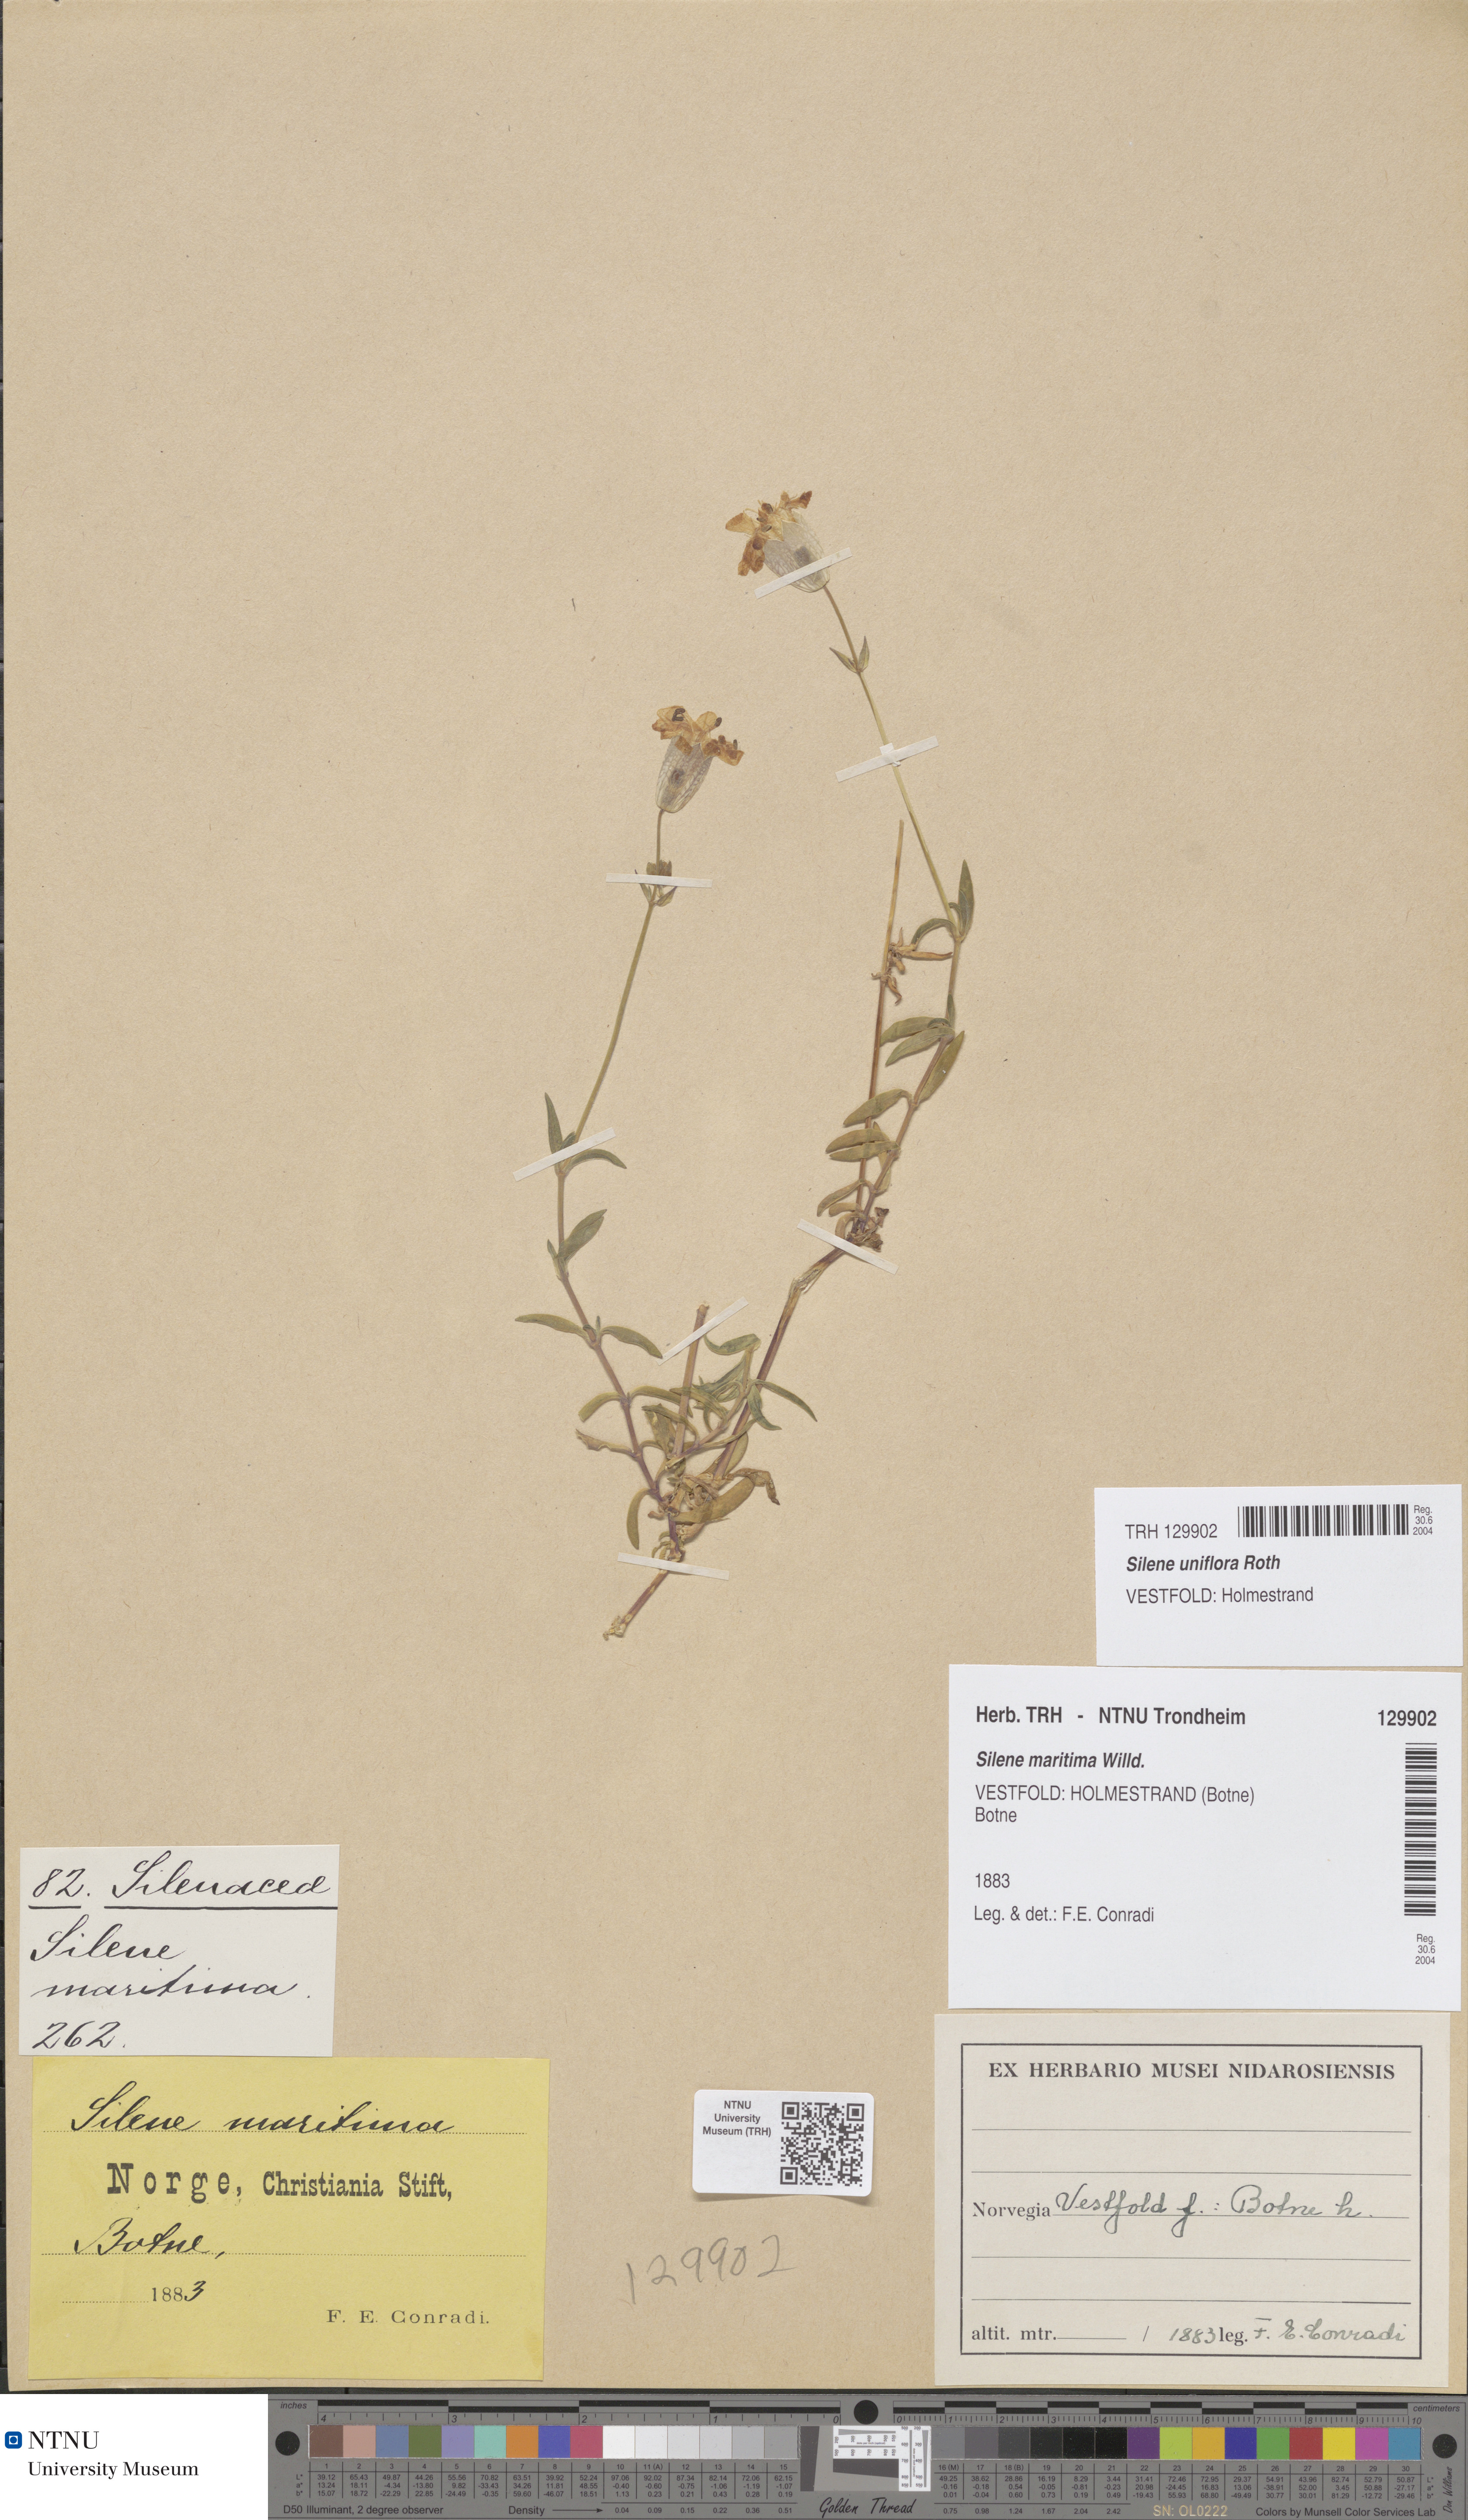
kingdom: Plantae
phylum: Tracheophyta
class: Magnoliopsida
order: Caryophyllales
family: Caryophyllaceae
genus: Silene
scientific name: Silene uniflora
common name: Sea campion
